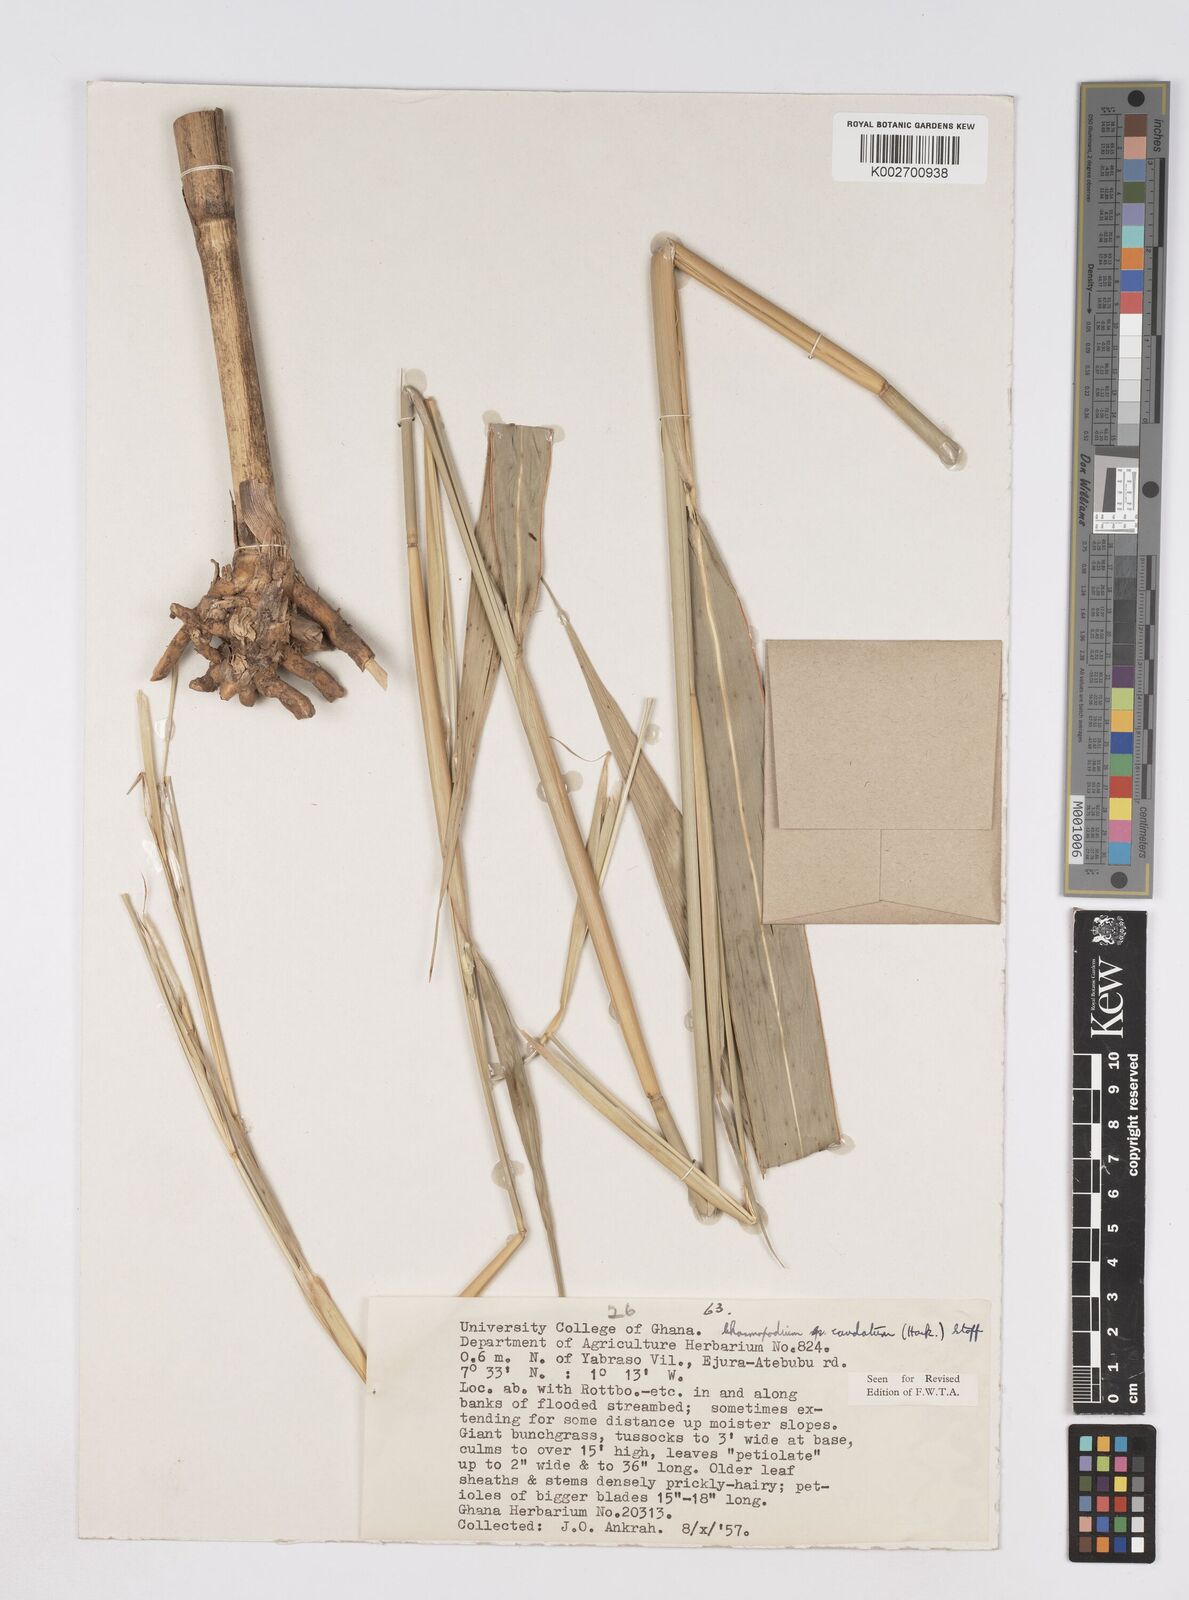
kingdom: Plantae
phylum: Tracheophyta
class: Liliopsida
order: Poales
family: Poaceae
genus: Chasmopodium
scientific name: Chasmopodium afzelii
